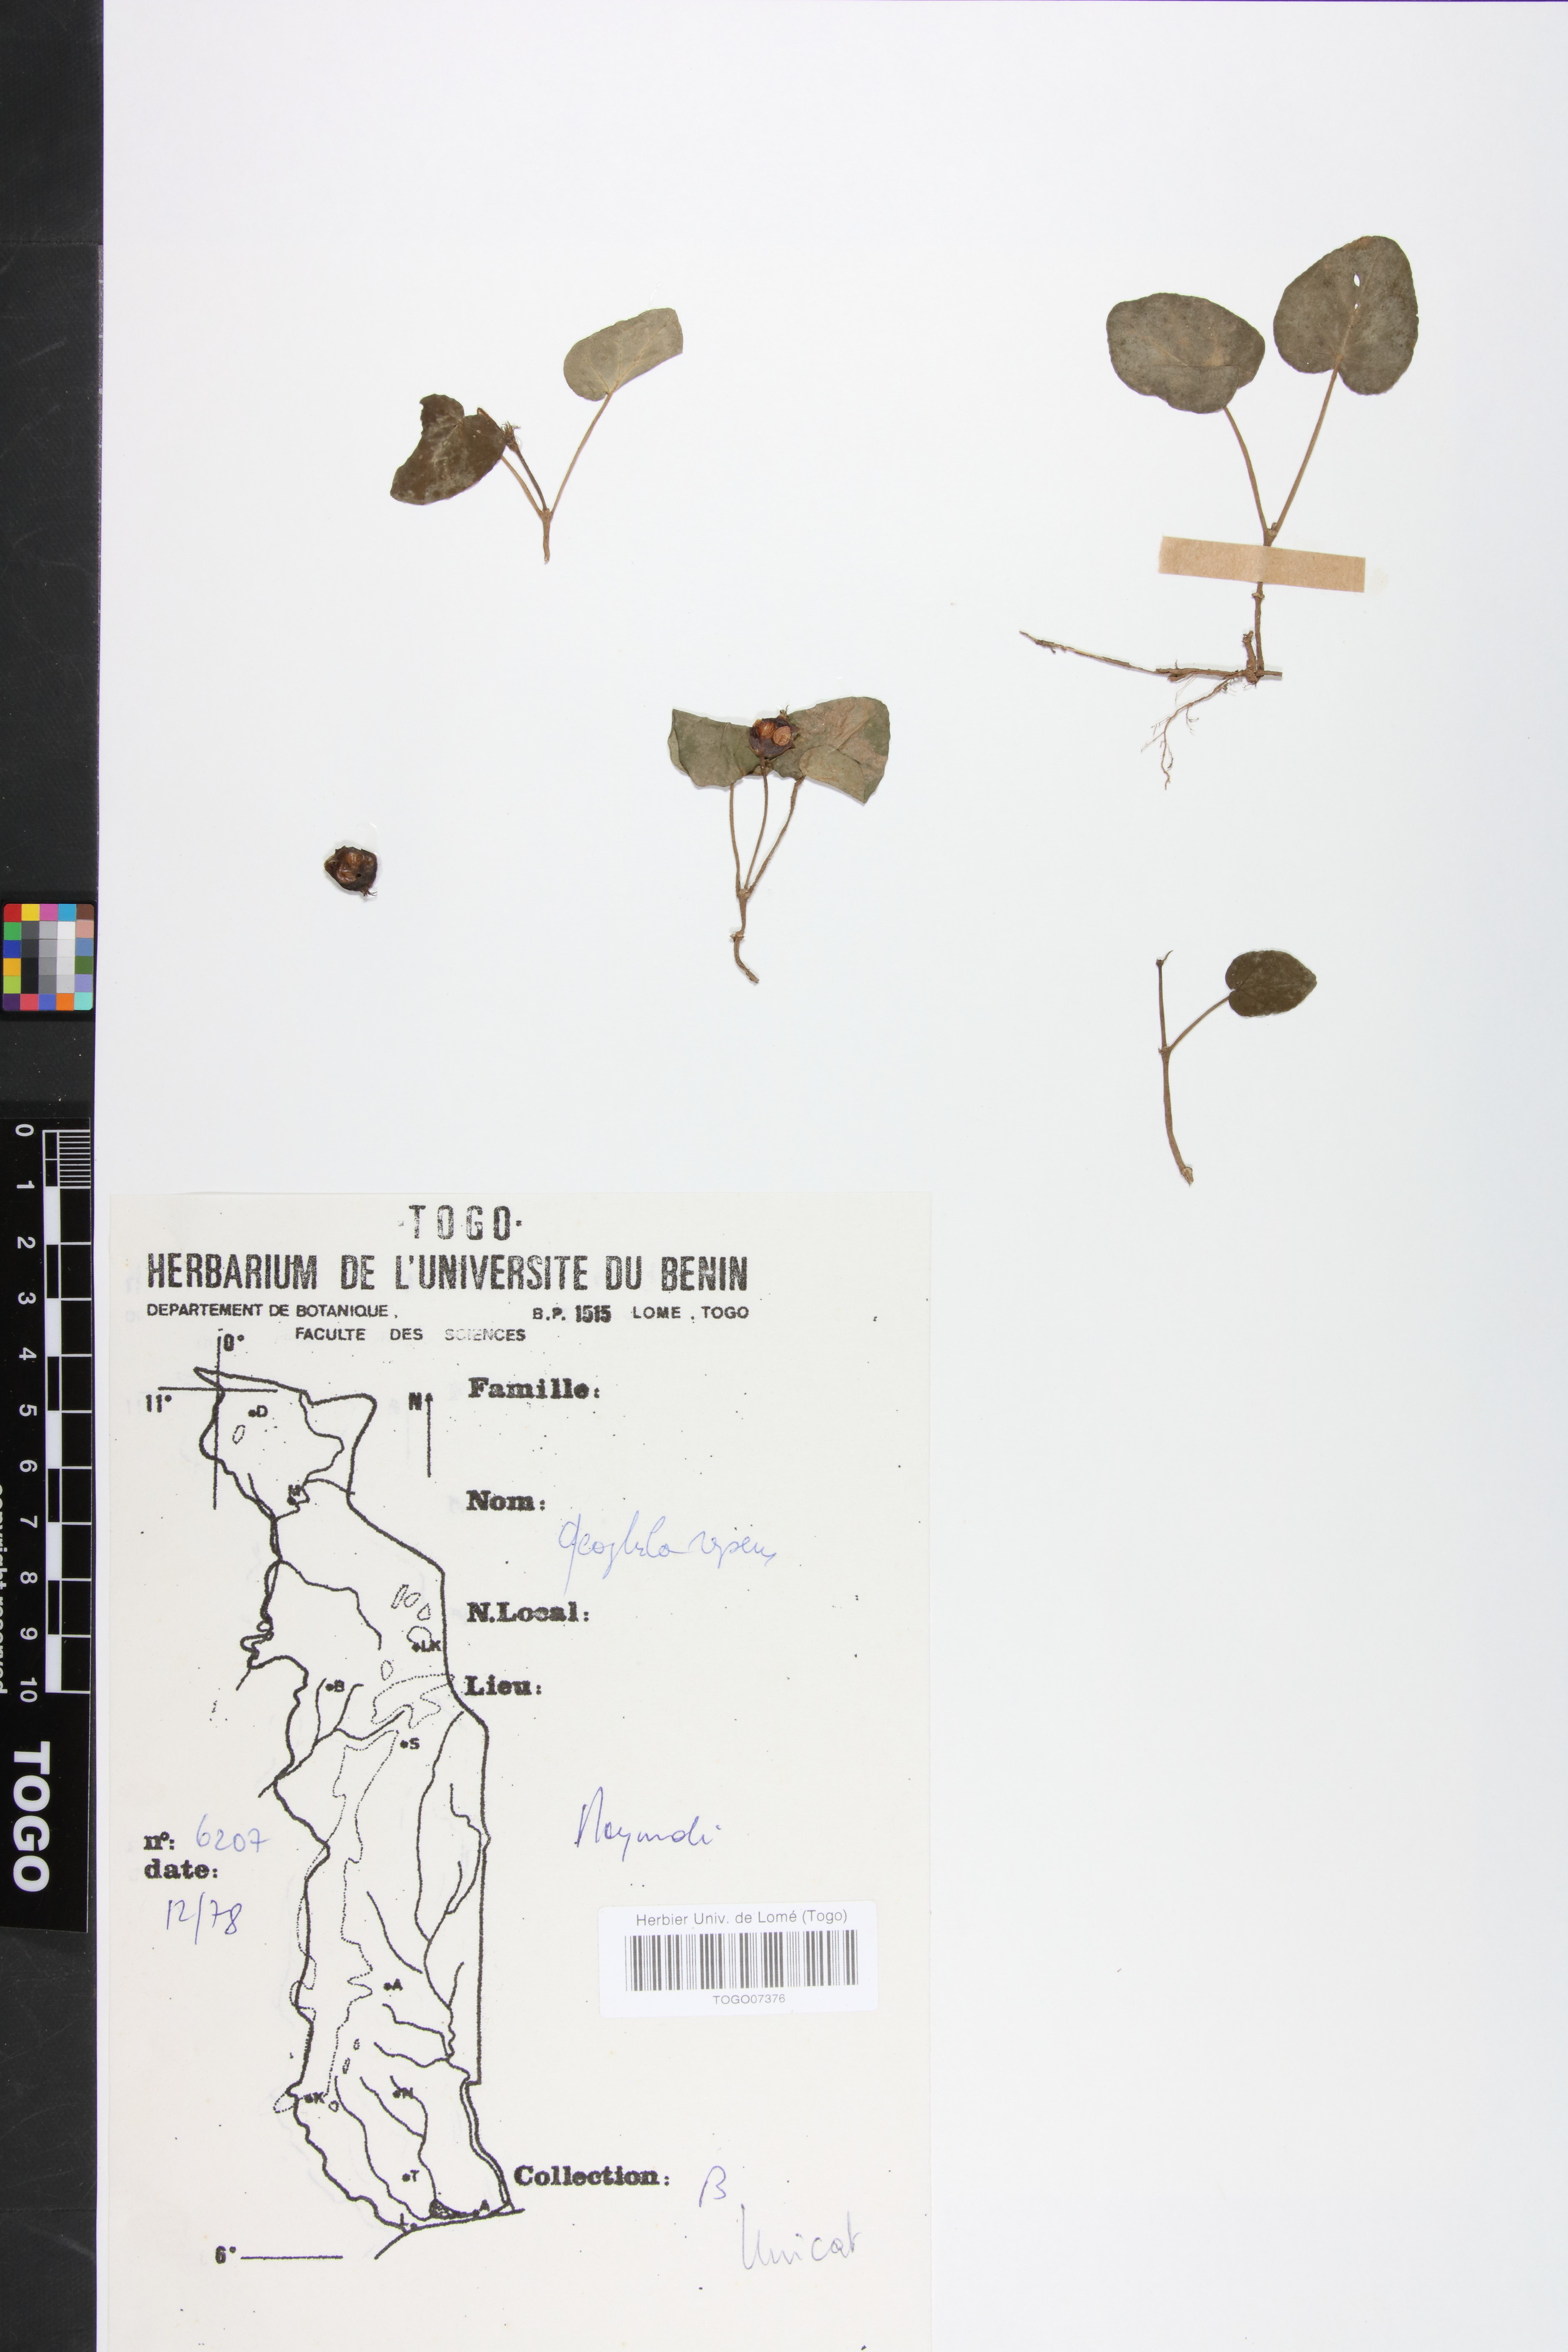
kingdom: Plantae
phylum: Tracheophyta
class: Magnoliopsida
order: Gentianales
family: Rubiaceae
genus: Geophila
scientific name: Geophila repens
